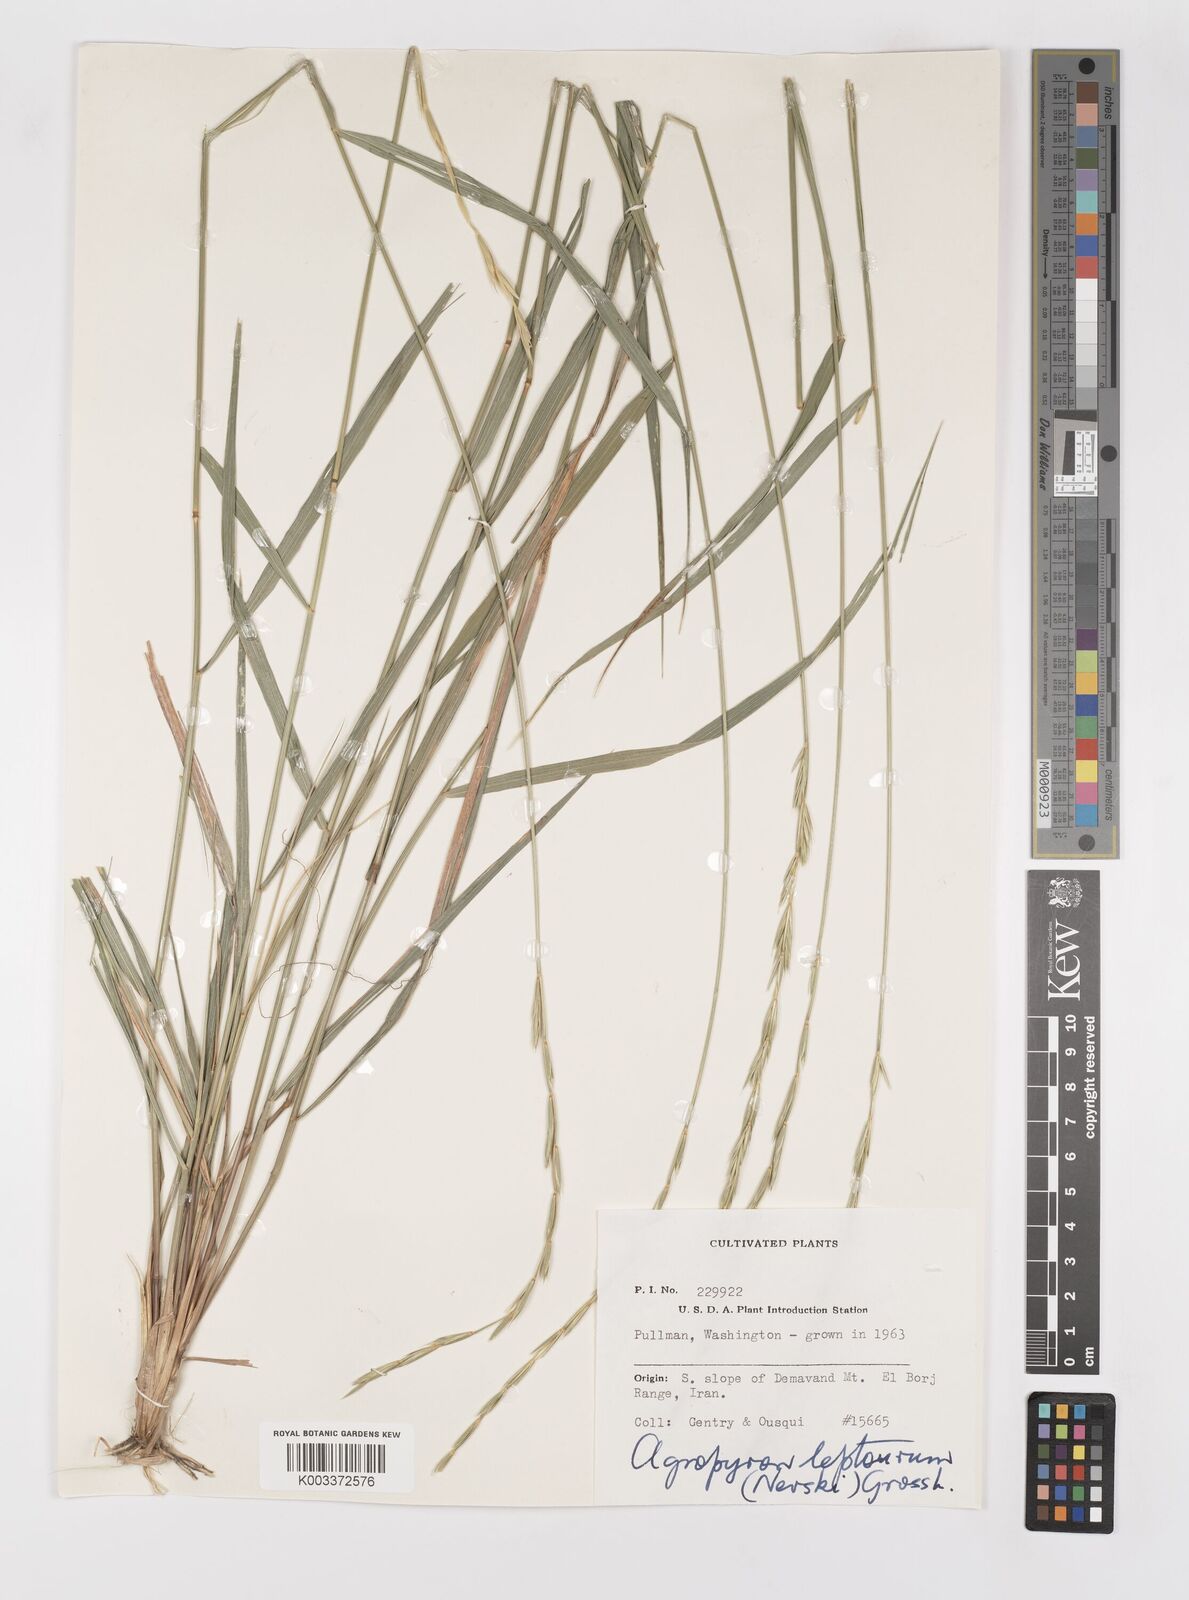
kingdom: Plantae
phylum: Tracheophyta
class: Liliopsida
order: Poales
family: Poaceae
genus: Elymus
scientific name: Elymus transhyrcanus
